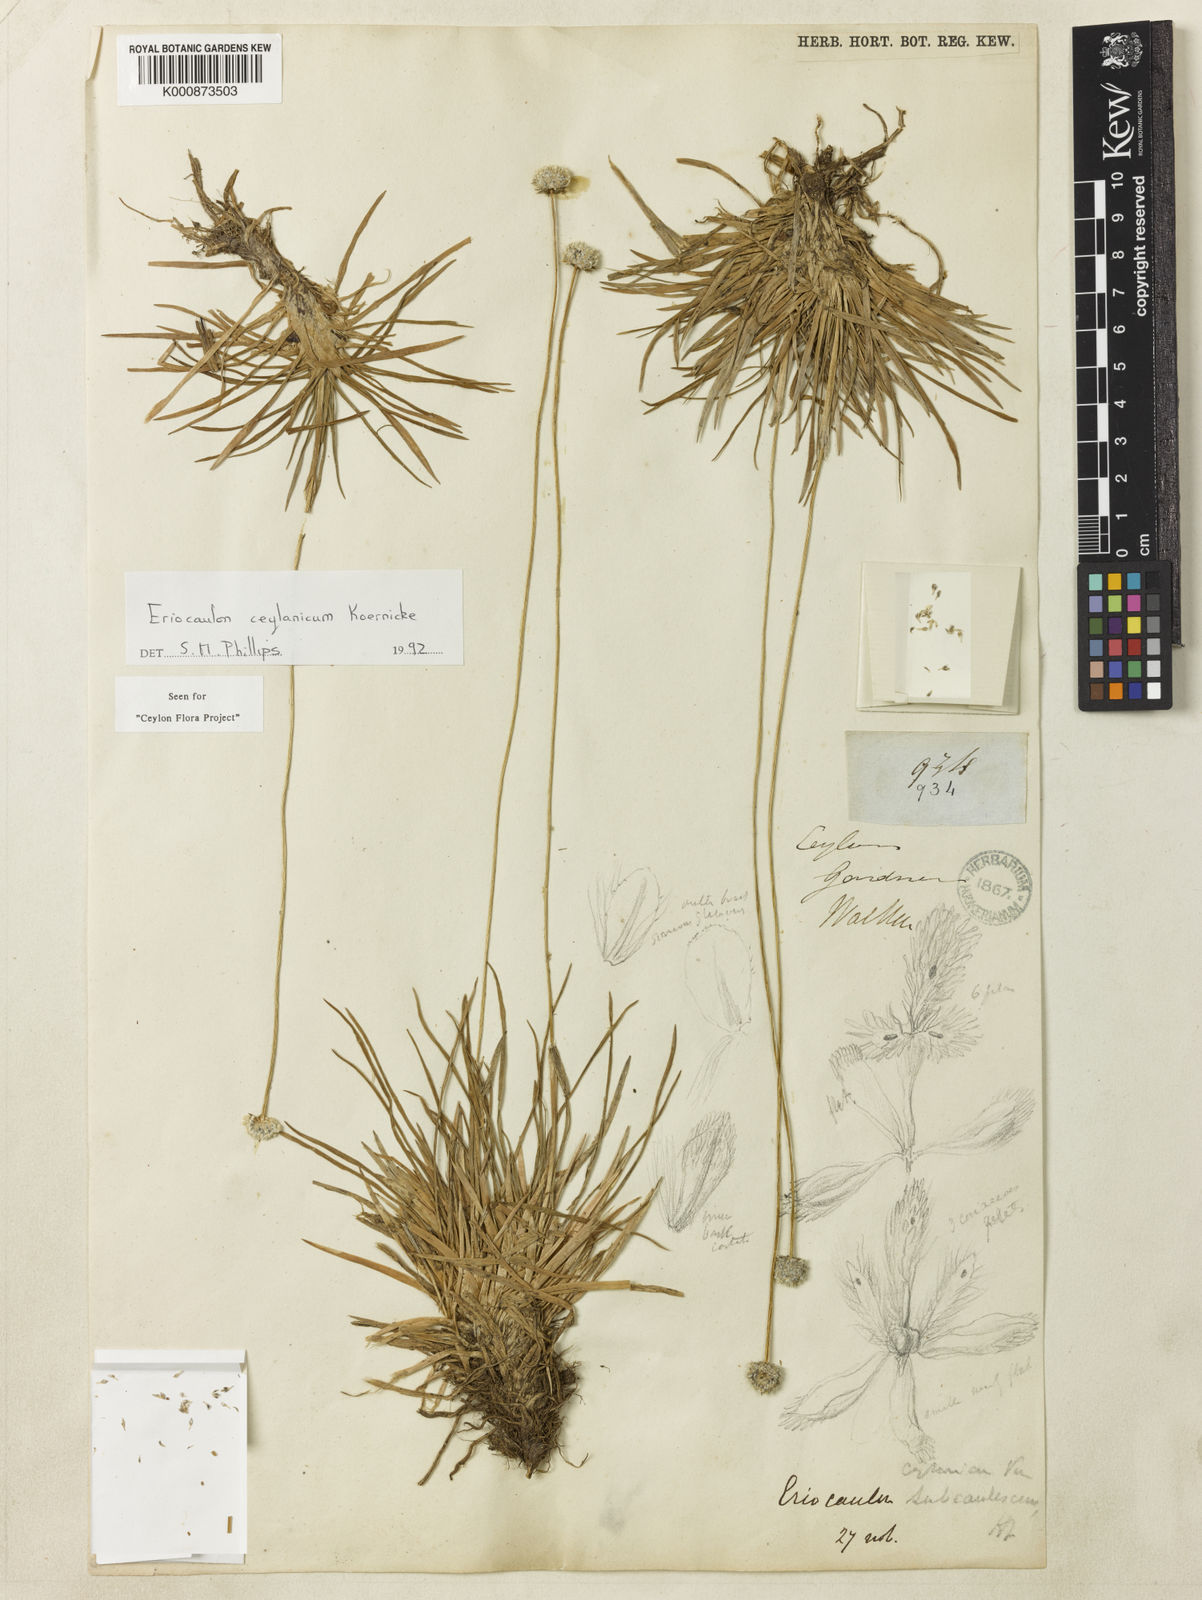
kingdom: Plantae
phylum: Tracheophyta
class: Liliopsida
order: Poales
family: Eriocaulaceae
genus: Eriocaulon
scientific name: Eriocaulon
